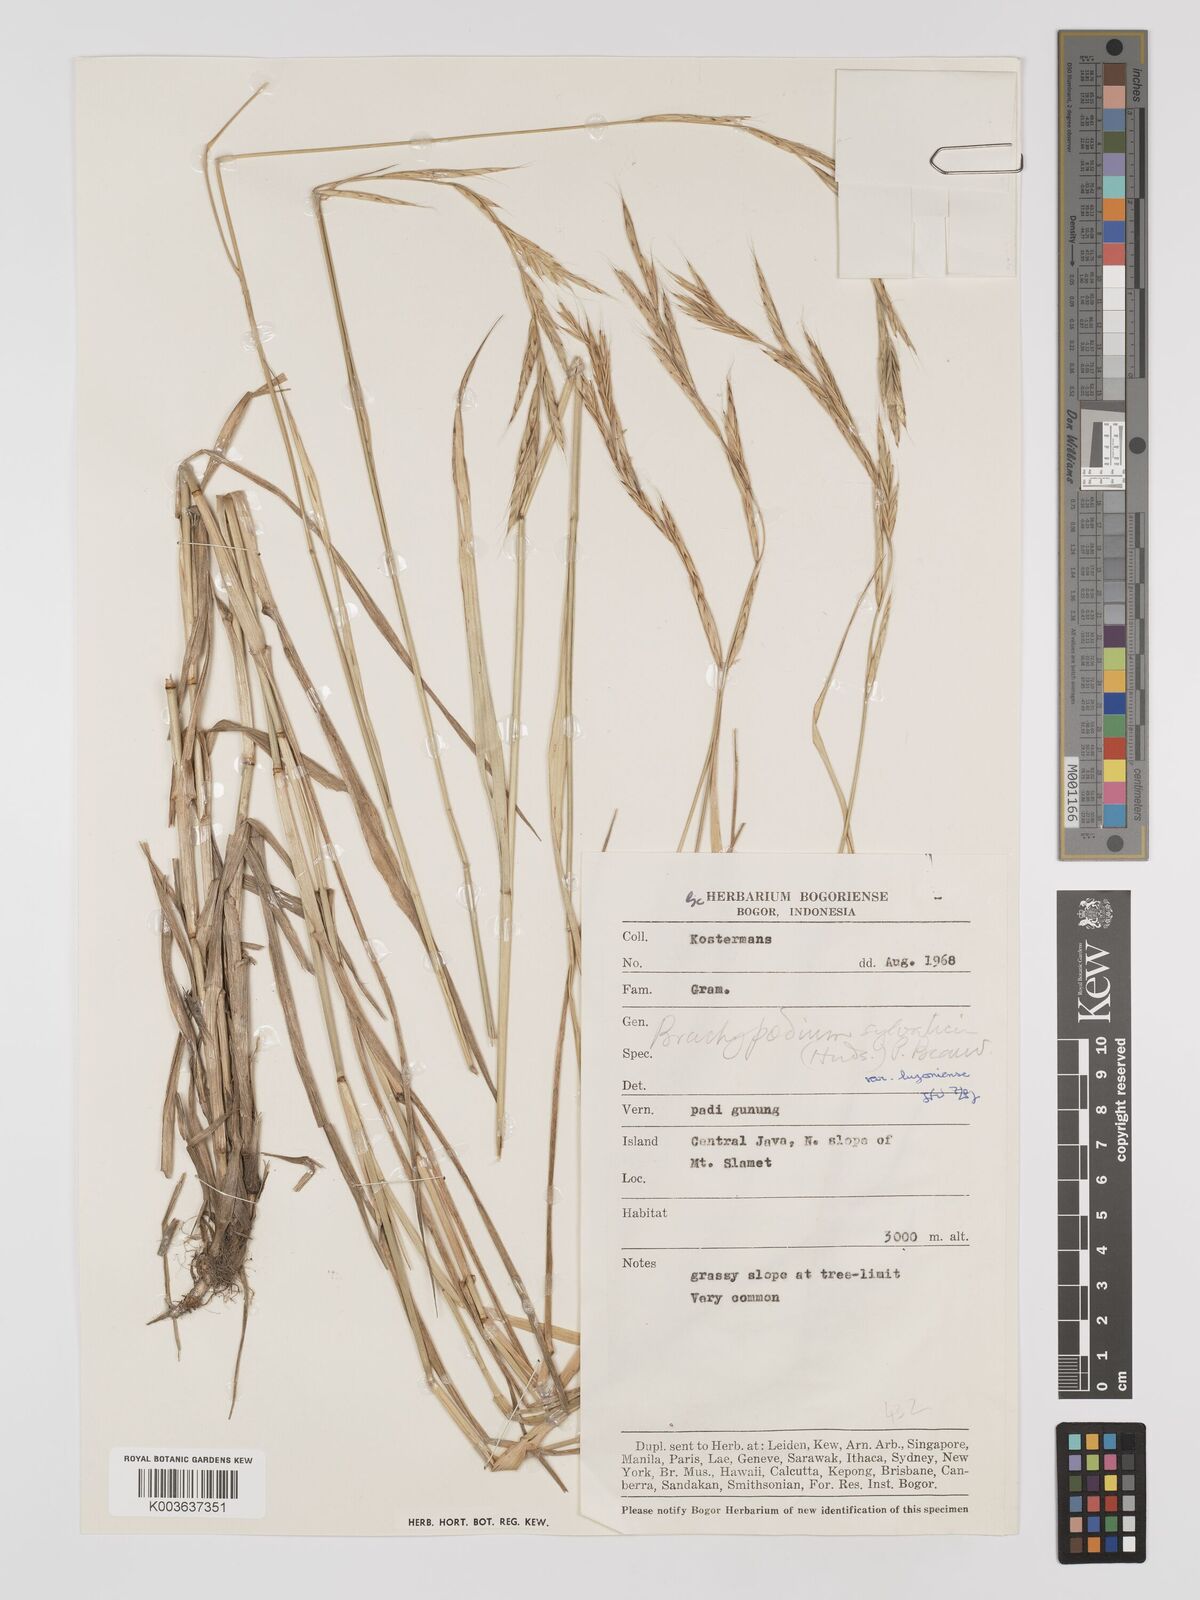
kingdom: Plantae
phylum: Tracheophyta
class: Liliopsida
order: Poales
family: Poaceae
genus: Brachypodium
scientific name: Brachypodium sylvaticum
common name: False-brome
